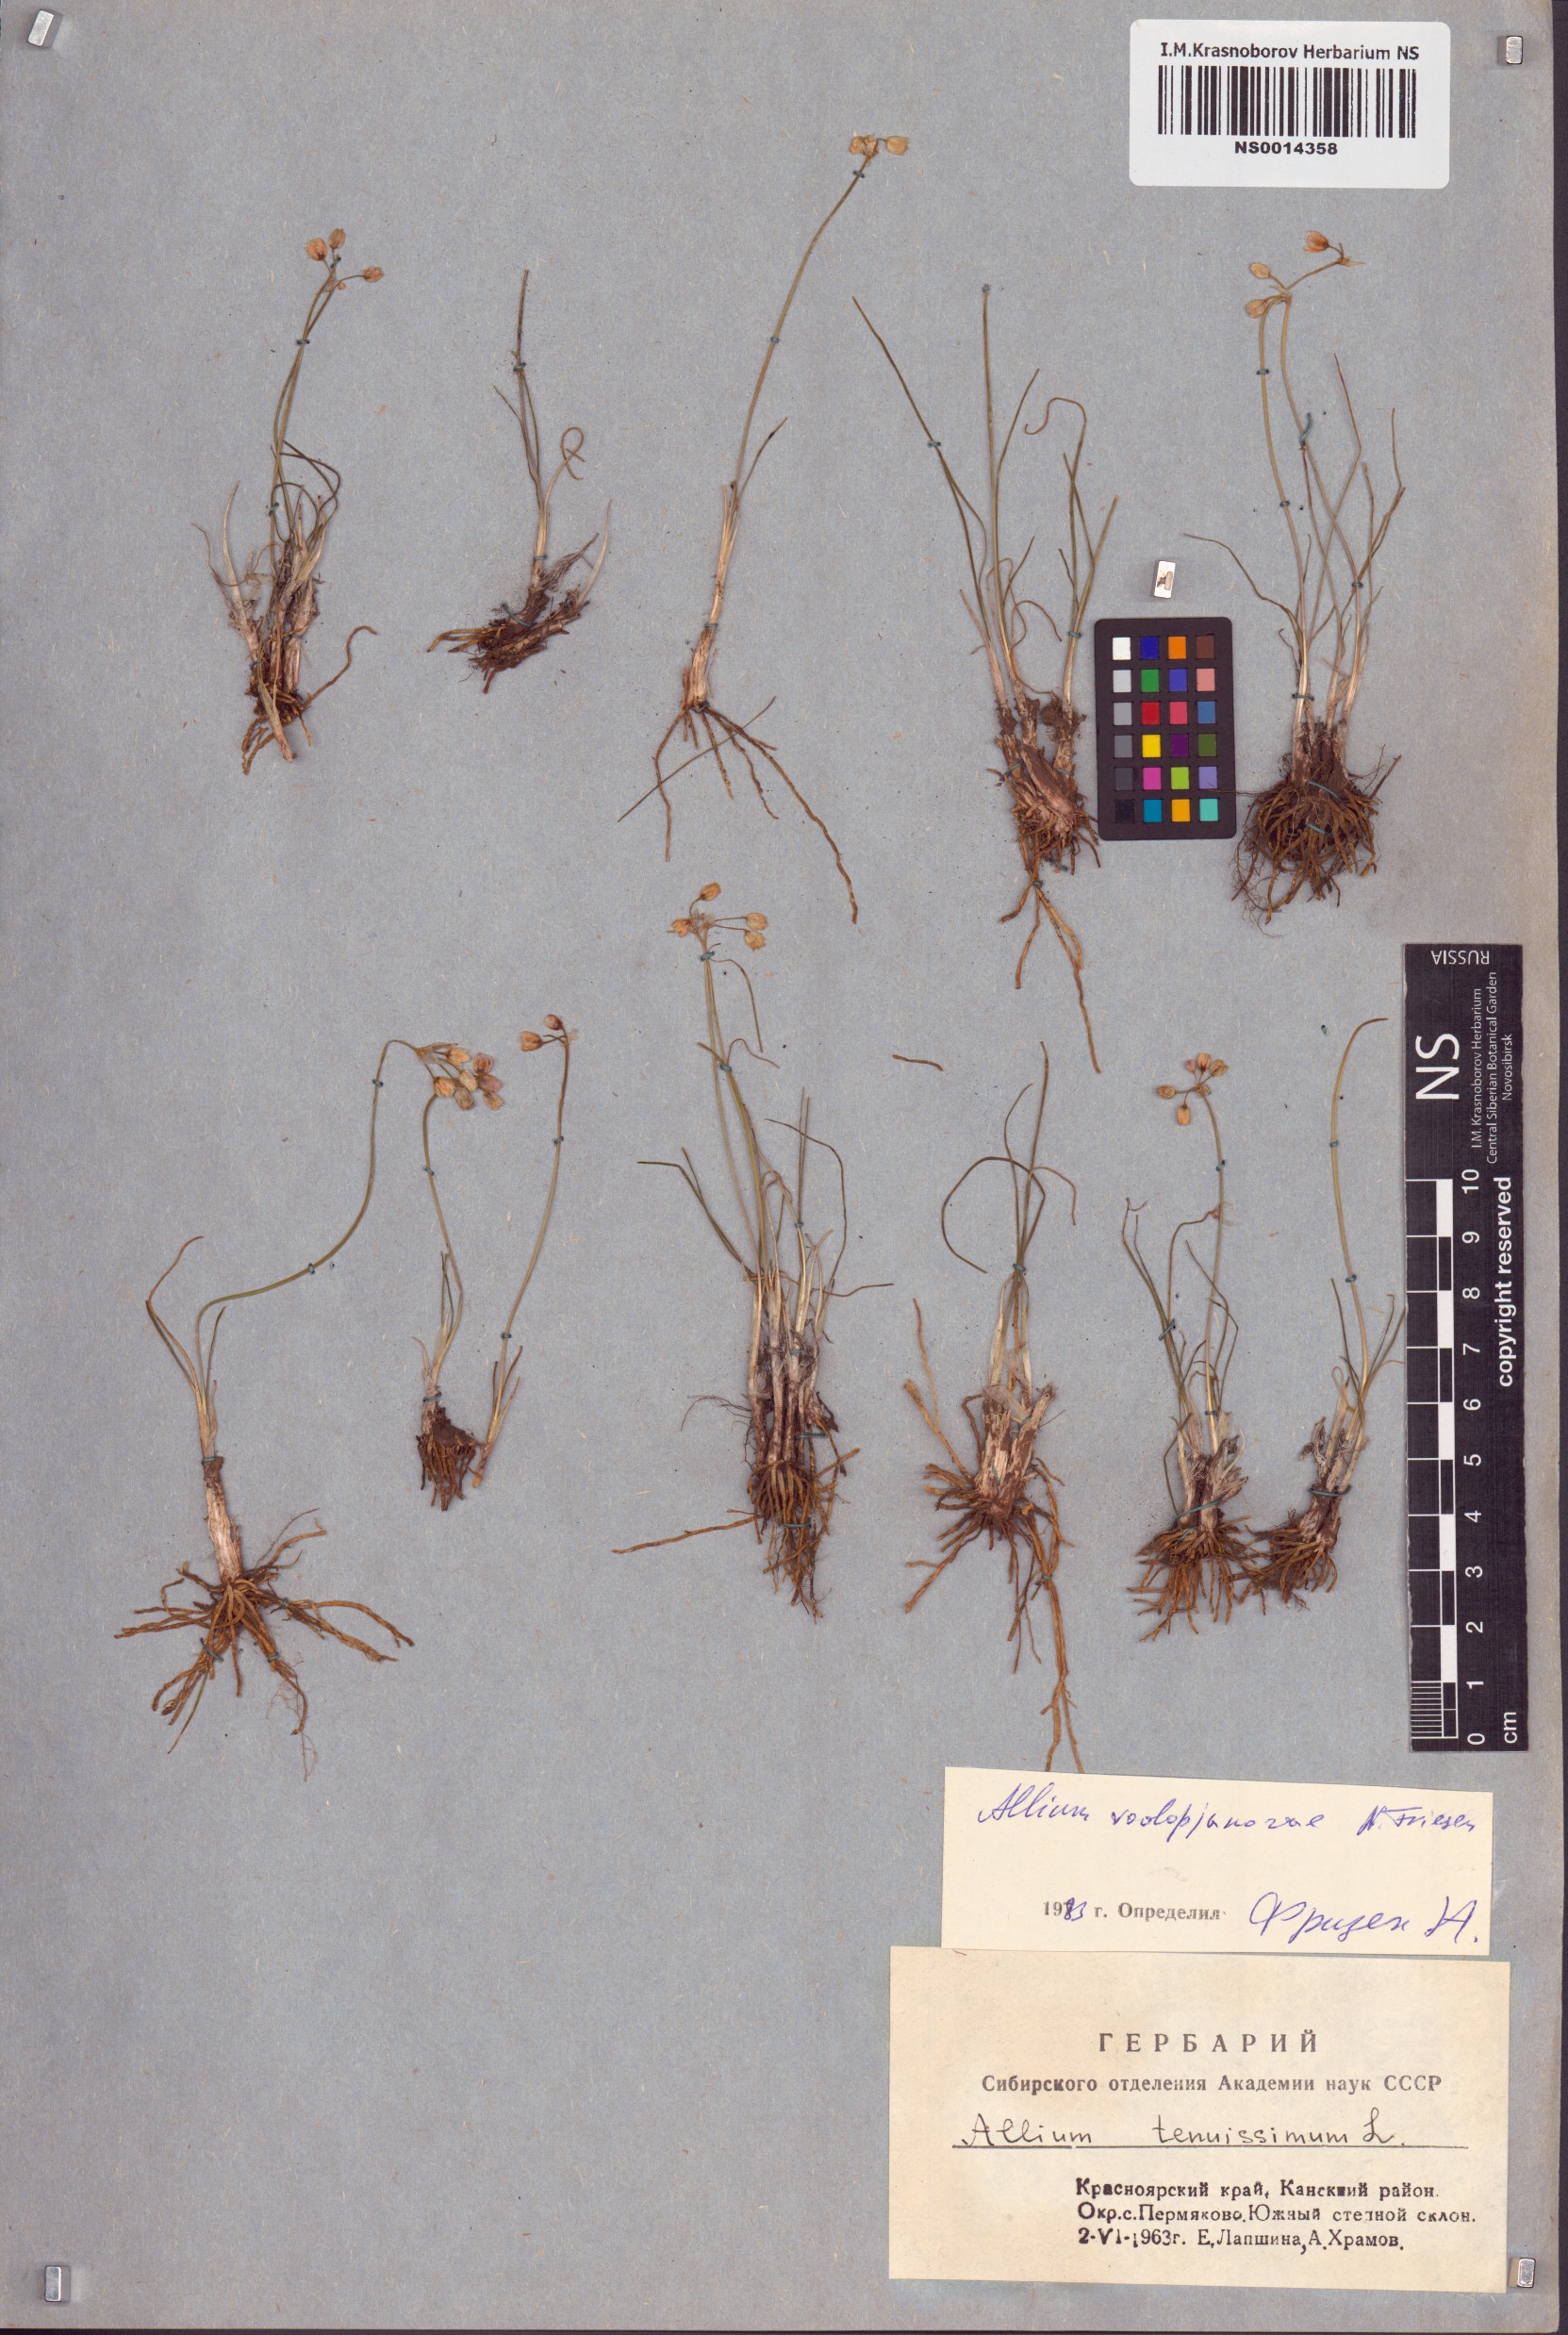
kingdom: Plantae
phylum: Tracheophyta
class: Liliopsida
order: Asparagales
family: Amaryllidaceae
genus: Allium
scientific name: Allium vodopjanovae
